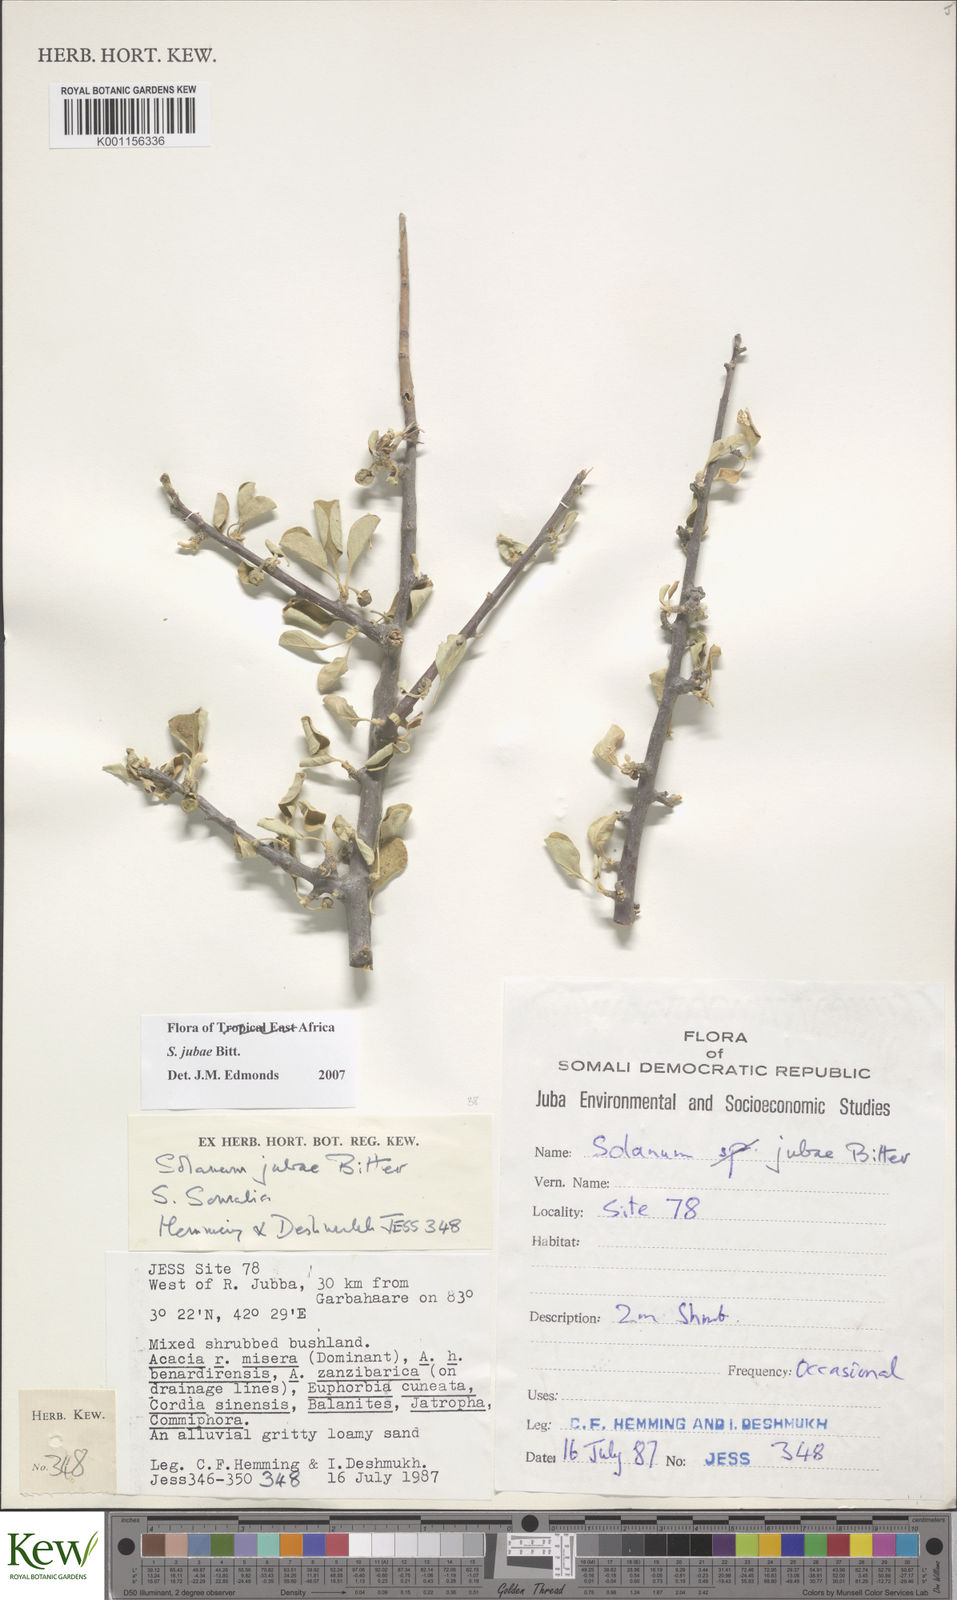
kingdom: Plantae
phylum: Tracheophyta
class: Magnoliopsida
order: Solanales
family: Solanaceae
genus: Solanum
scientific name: Solanum jubae
